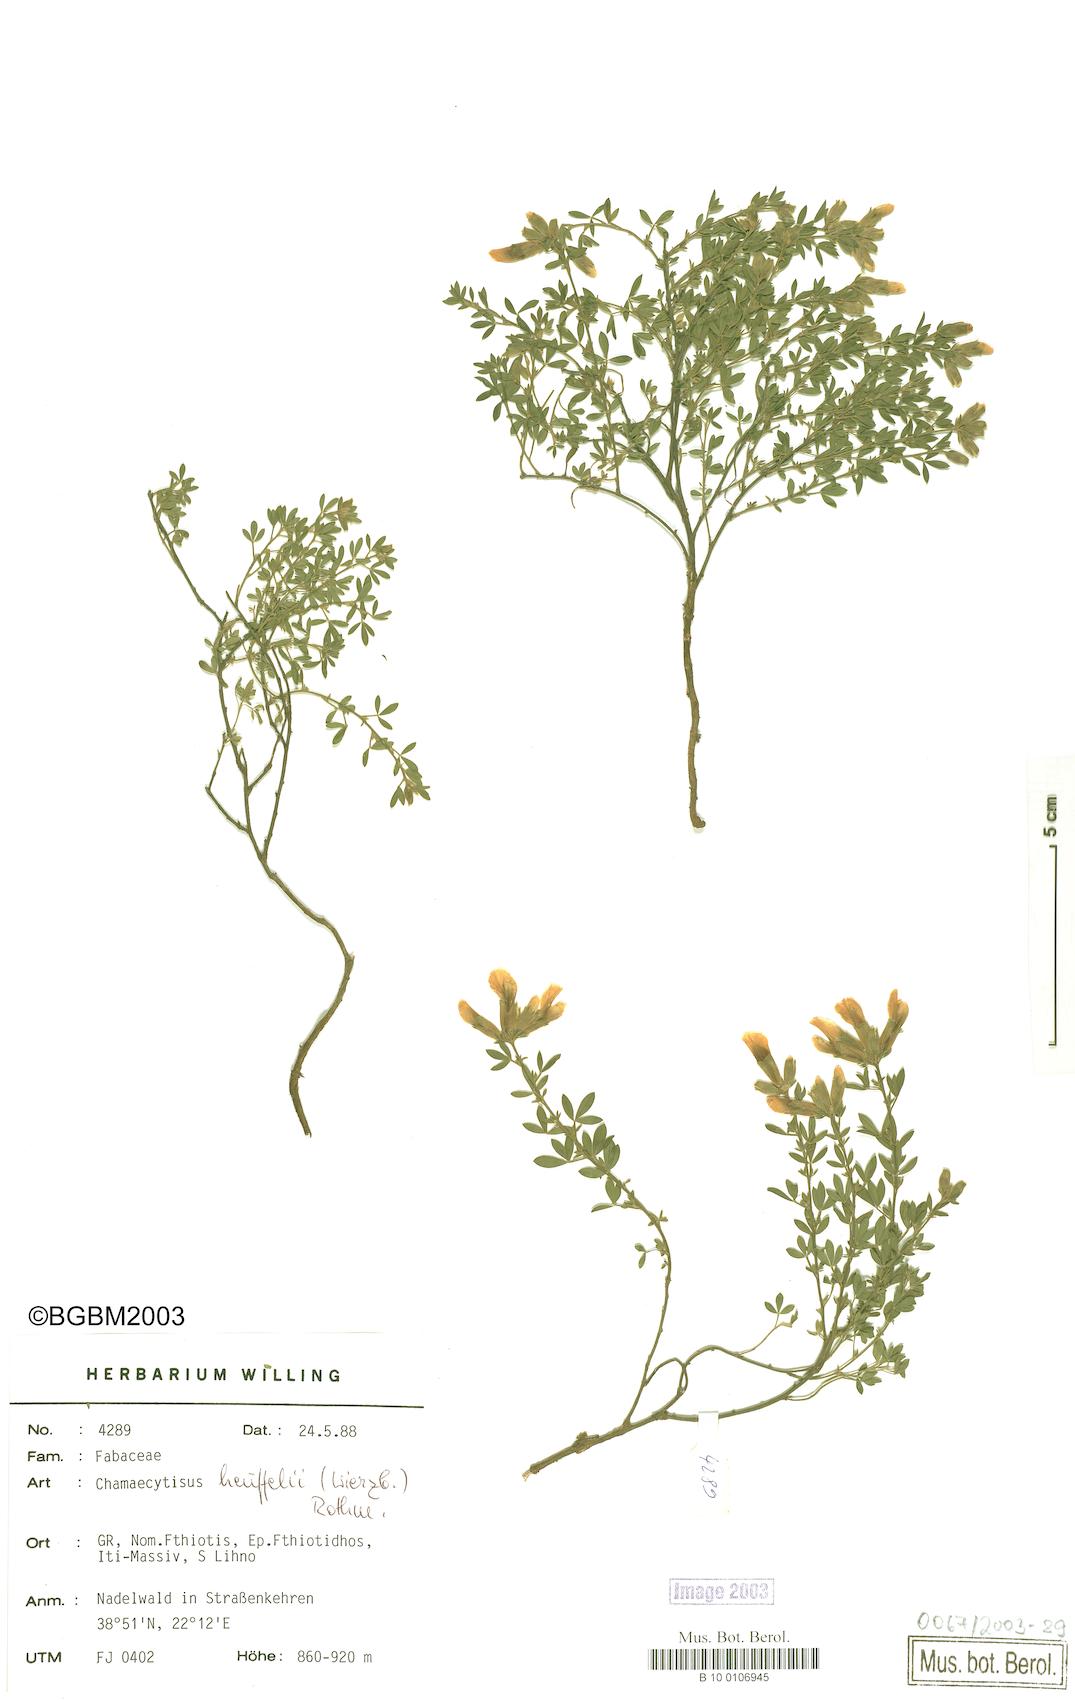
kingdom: Plantae
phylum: Tracheophyta
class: Magnoliopsida
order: Fabales
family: Fabaceae
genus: Chamaecytisus
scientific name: Chamaecytisus heuffelii
